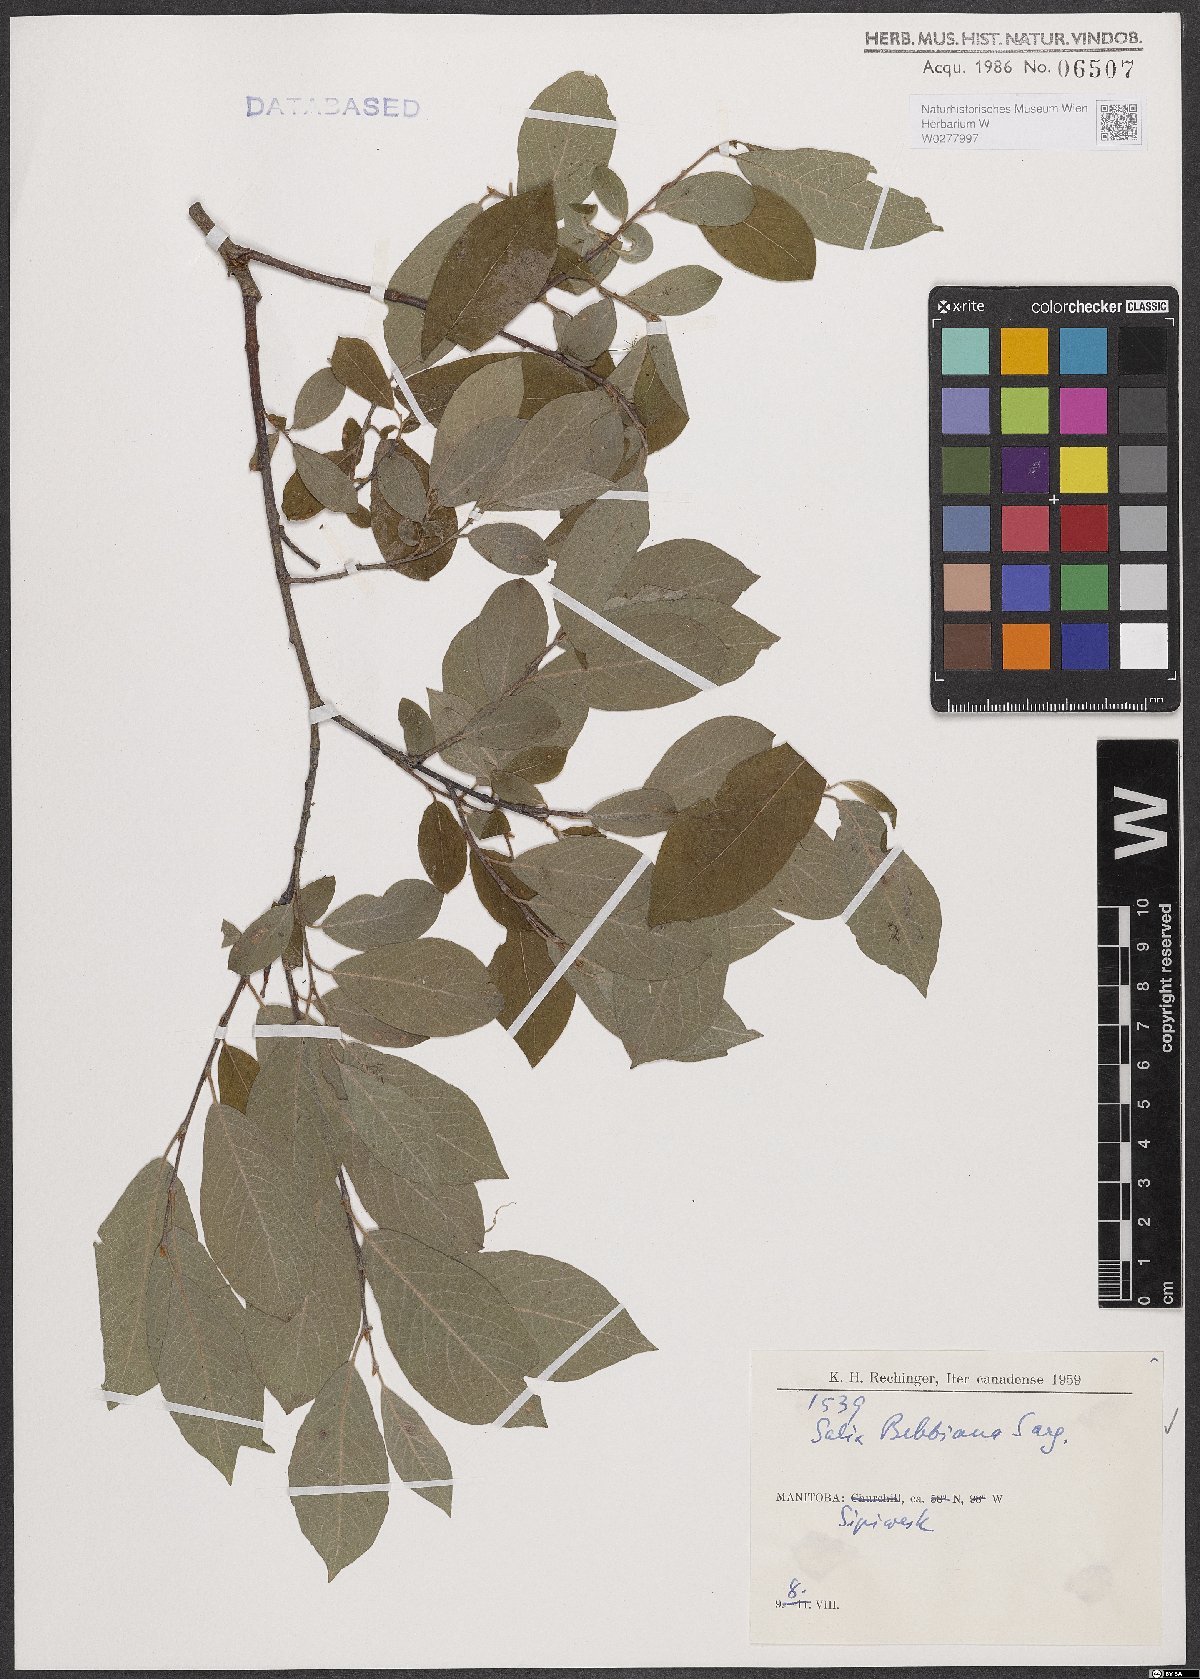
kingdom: Plantae
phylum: Tracheophyta
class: Magnoliopsida
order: Malpighiales
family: Salicaceae
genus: Salix
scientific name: Salix bebbiana
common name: Bebb's willow
